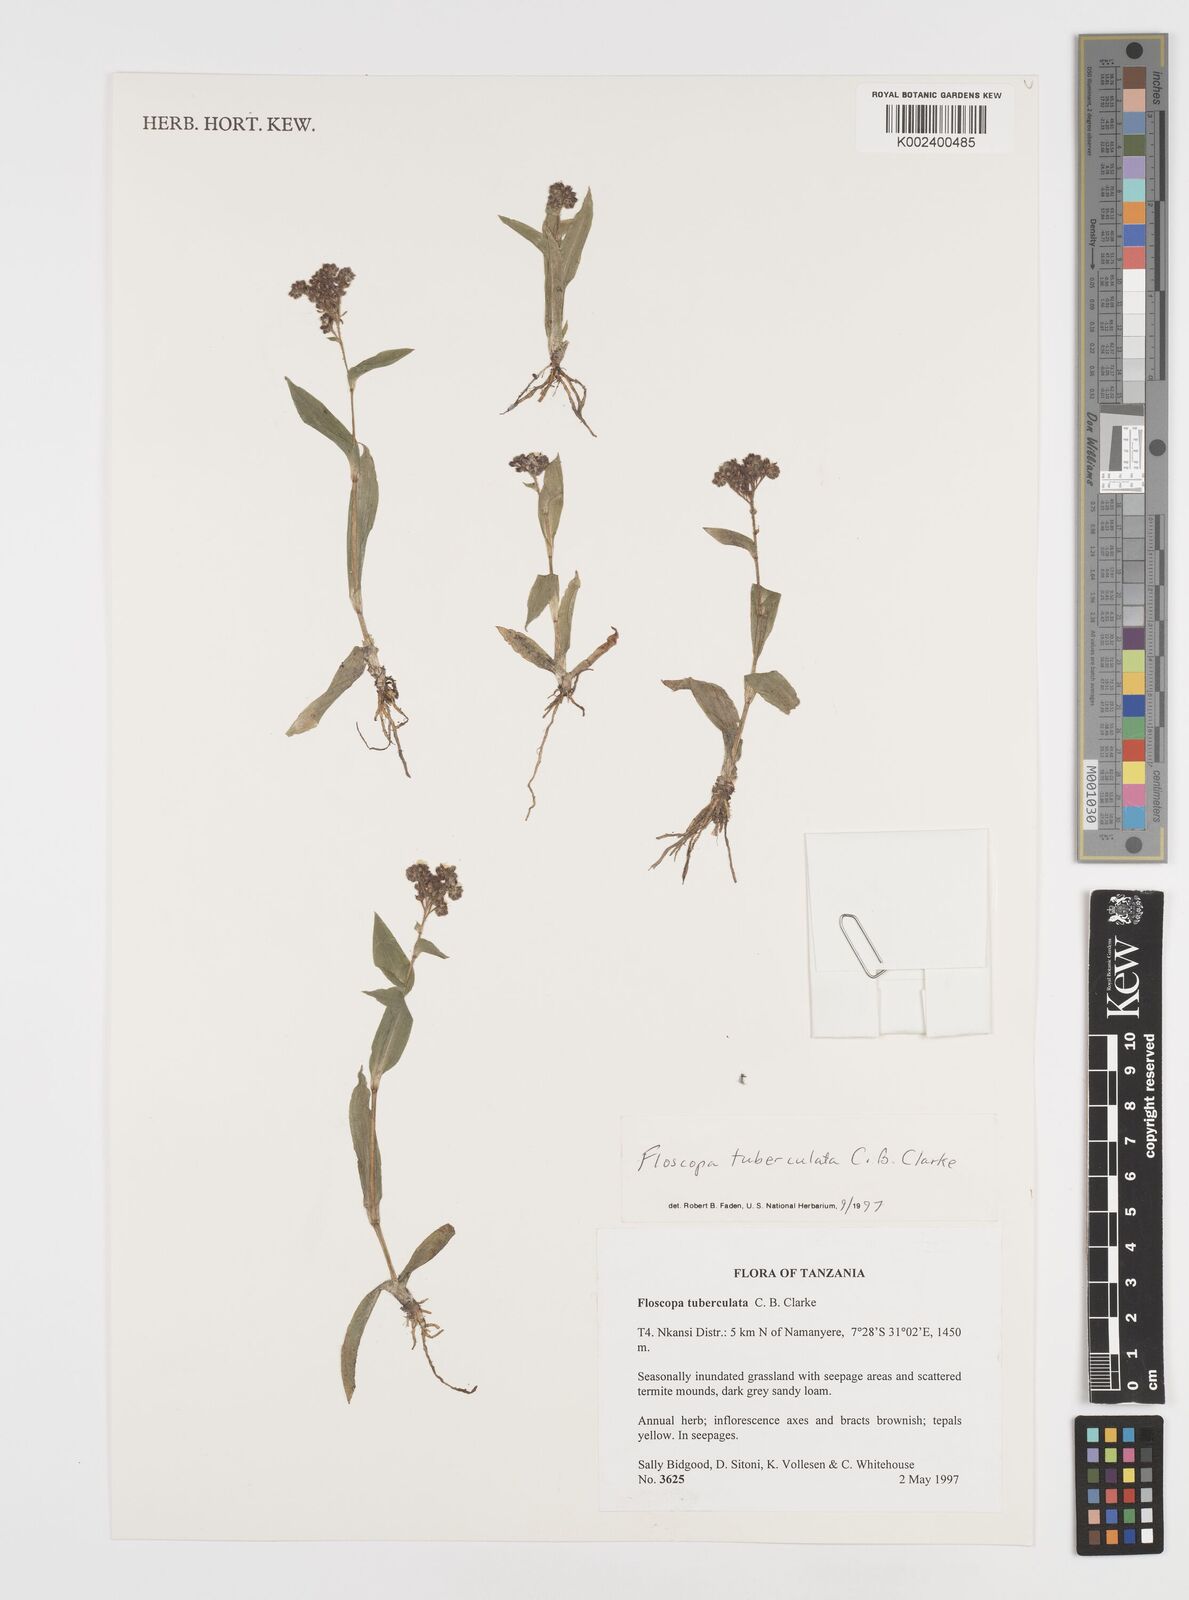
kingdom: Plantae
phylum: Tracheophyta
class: Liliopsida
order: Commelinales
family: Commelinaceae
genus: Floscopa
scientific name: Floscopa tuberculata
